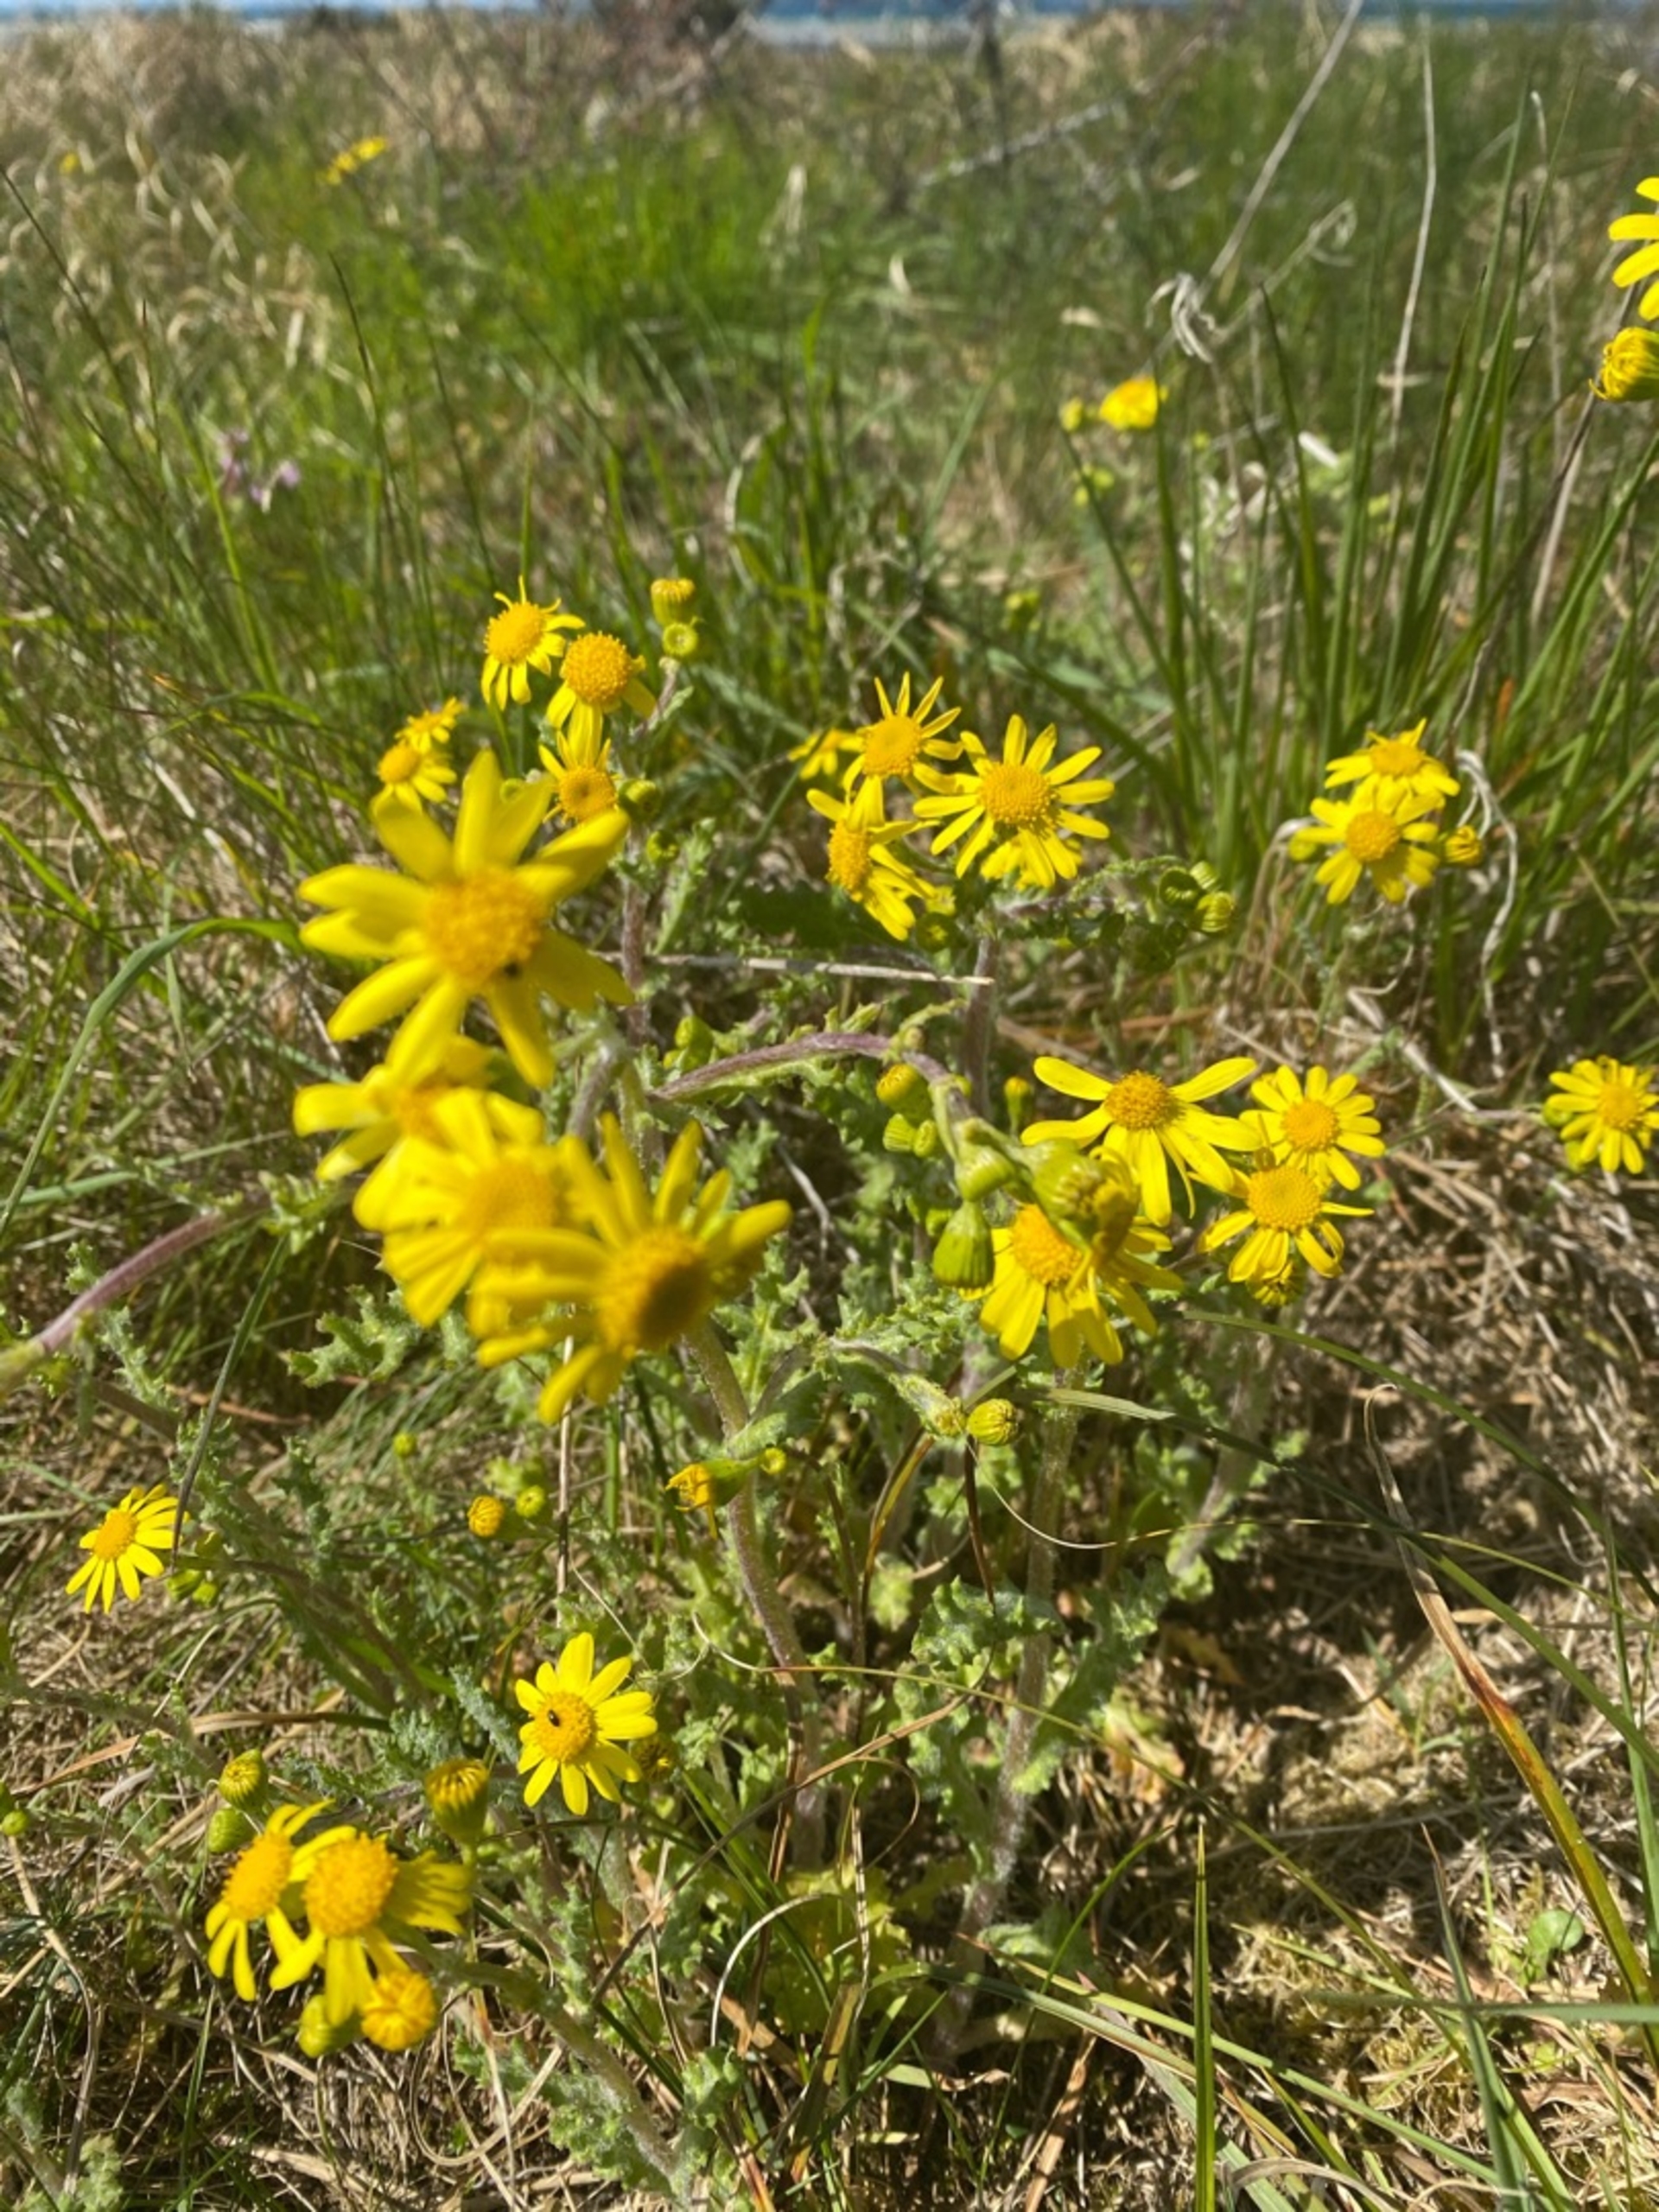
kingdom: Plantae
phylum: Tracheophyta
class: Magnoliopsida
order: Asterales
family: Asteraceae
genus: Senecio
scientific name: Senecio leucanthemifolius
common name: Vår-brandbæger
